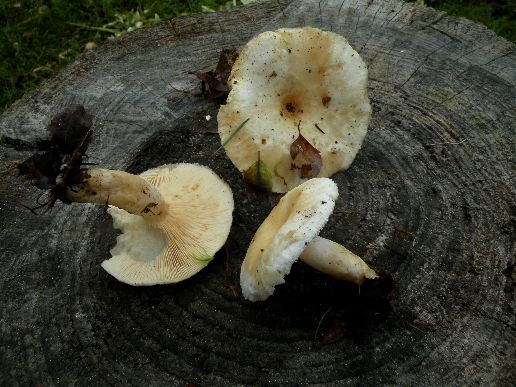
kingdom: Fungi
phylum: Basidiomycota
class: Agaricomycetes
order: Russulales
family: Russulaceae
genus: Lactarius
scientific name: Lactarius scoticus
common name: tørve-mælkehat
